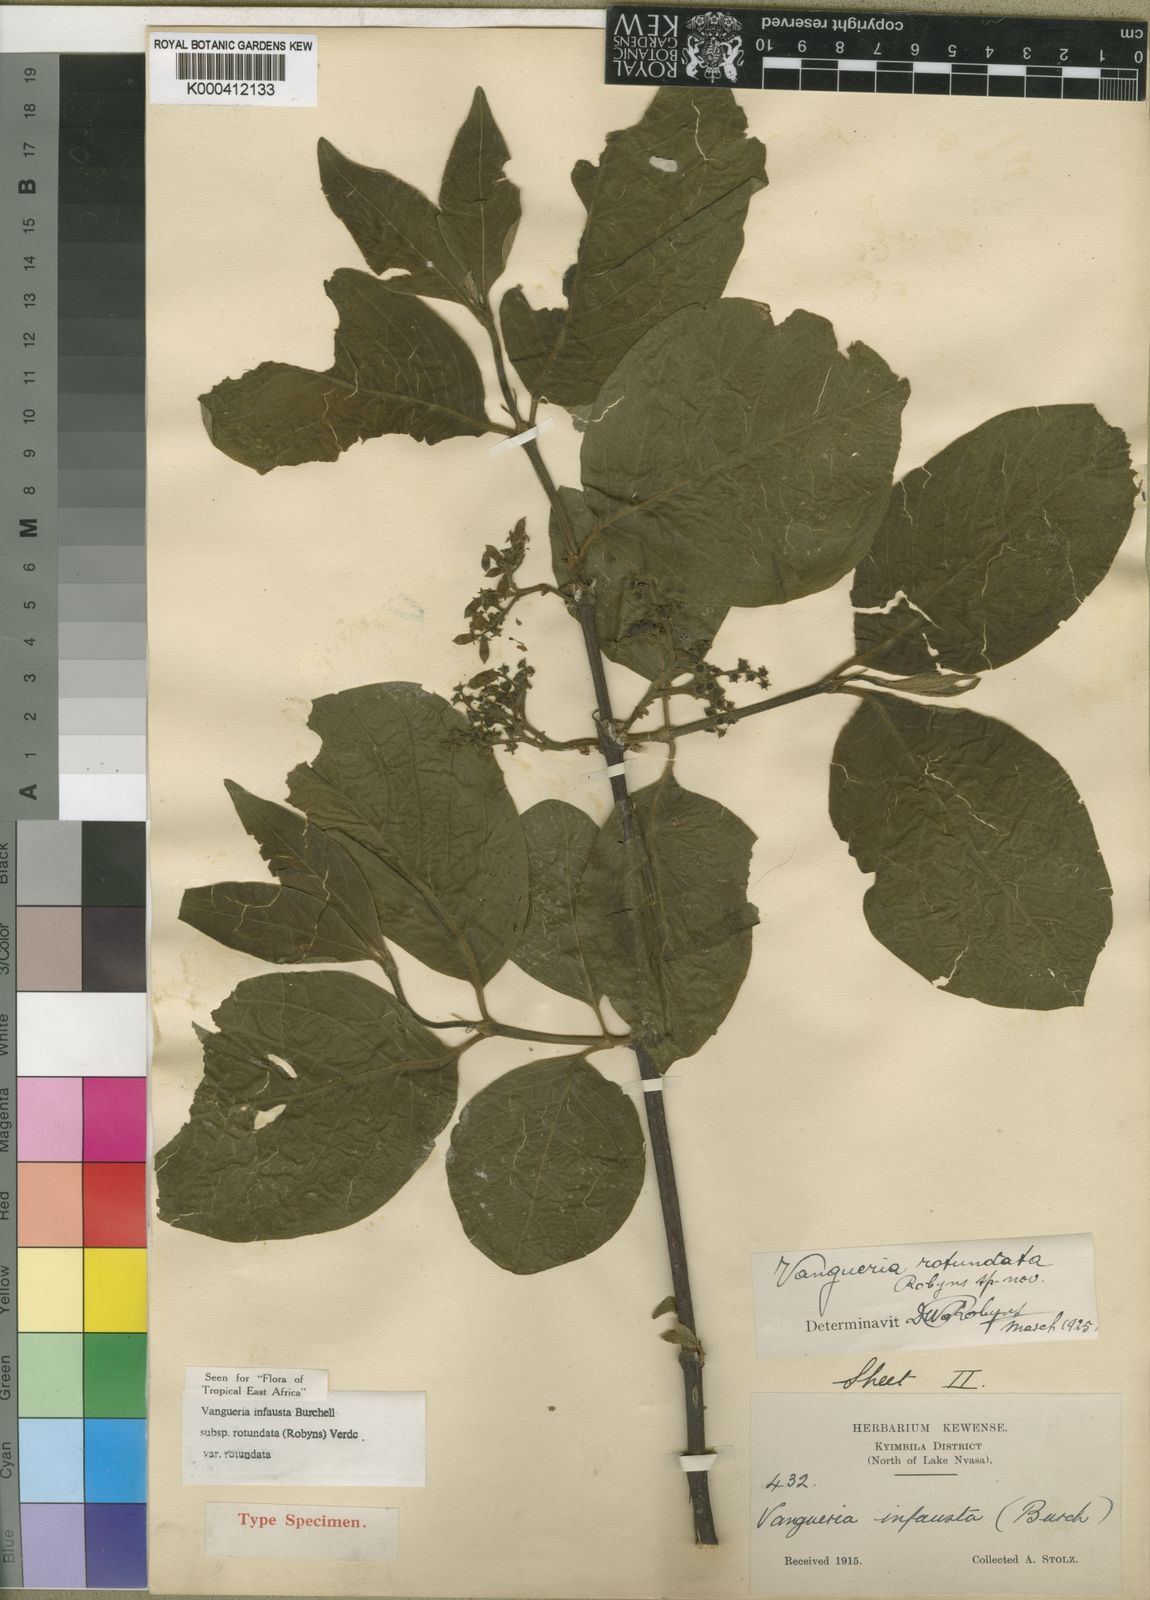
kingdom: Plantae
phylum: Tracheophyta
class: Magnoliopsida
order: Gentianales
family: Rubiaceae
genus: Vangueria
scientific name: Vangueria infausta
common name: Medlar
